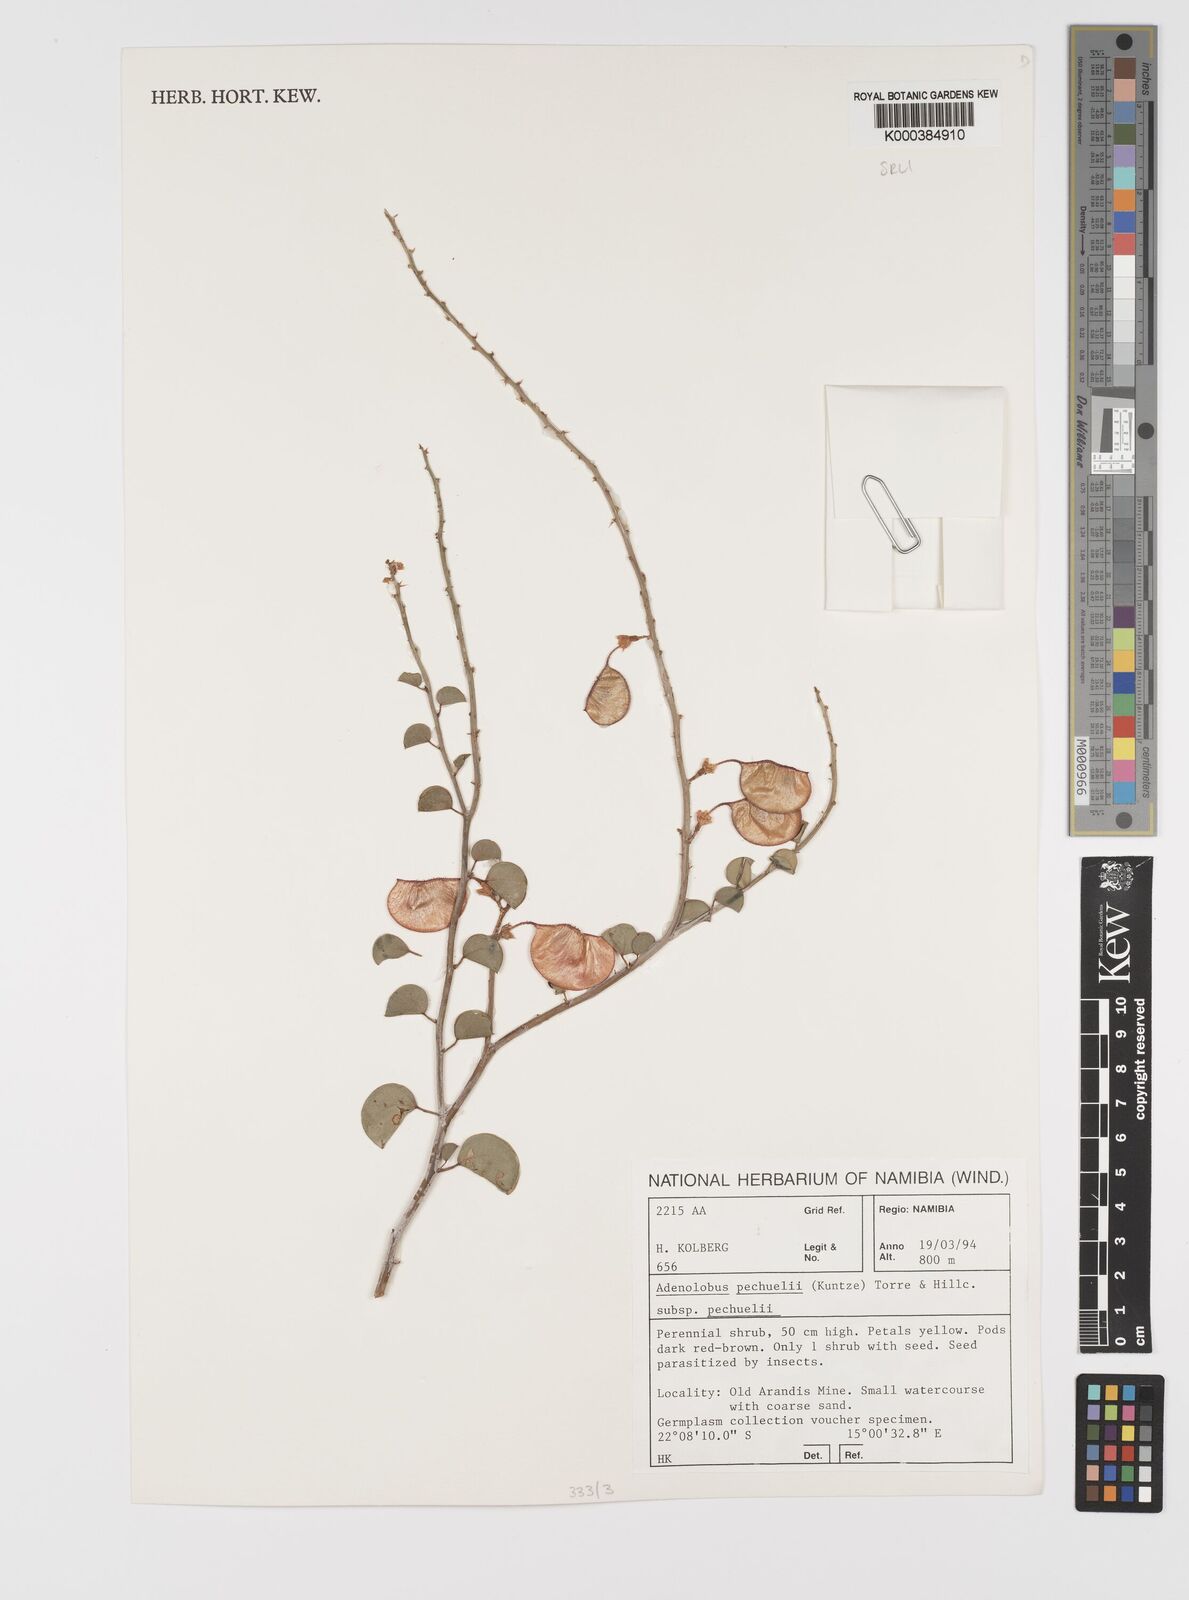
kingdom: Plantae
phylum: Tracheophyta
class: Magnoliopsida
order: Fabales
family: Fabaceae
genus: Adenolobus
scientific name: Adenolobus
